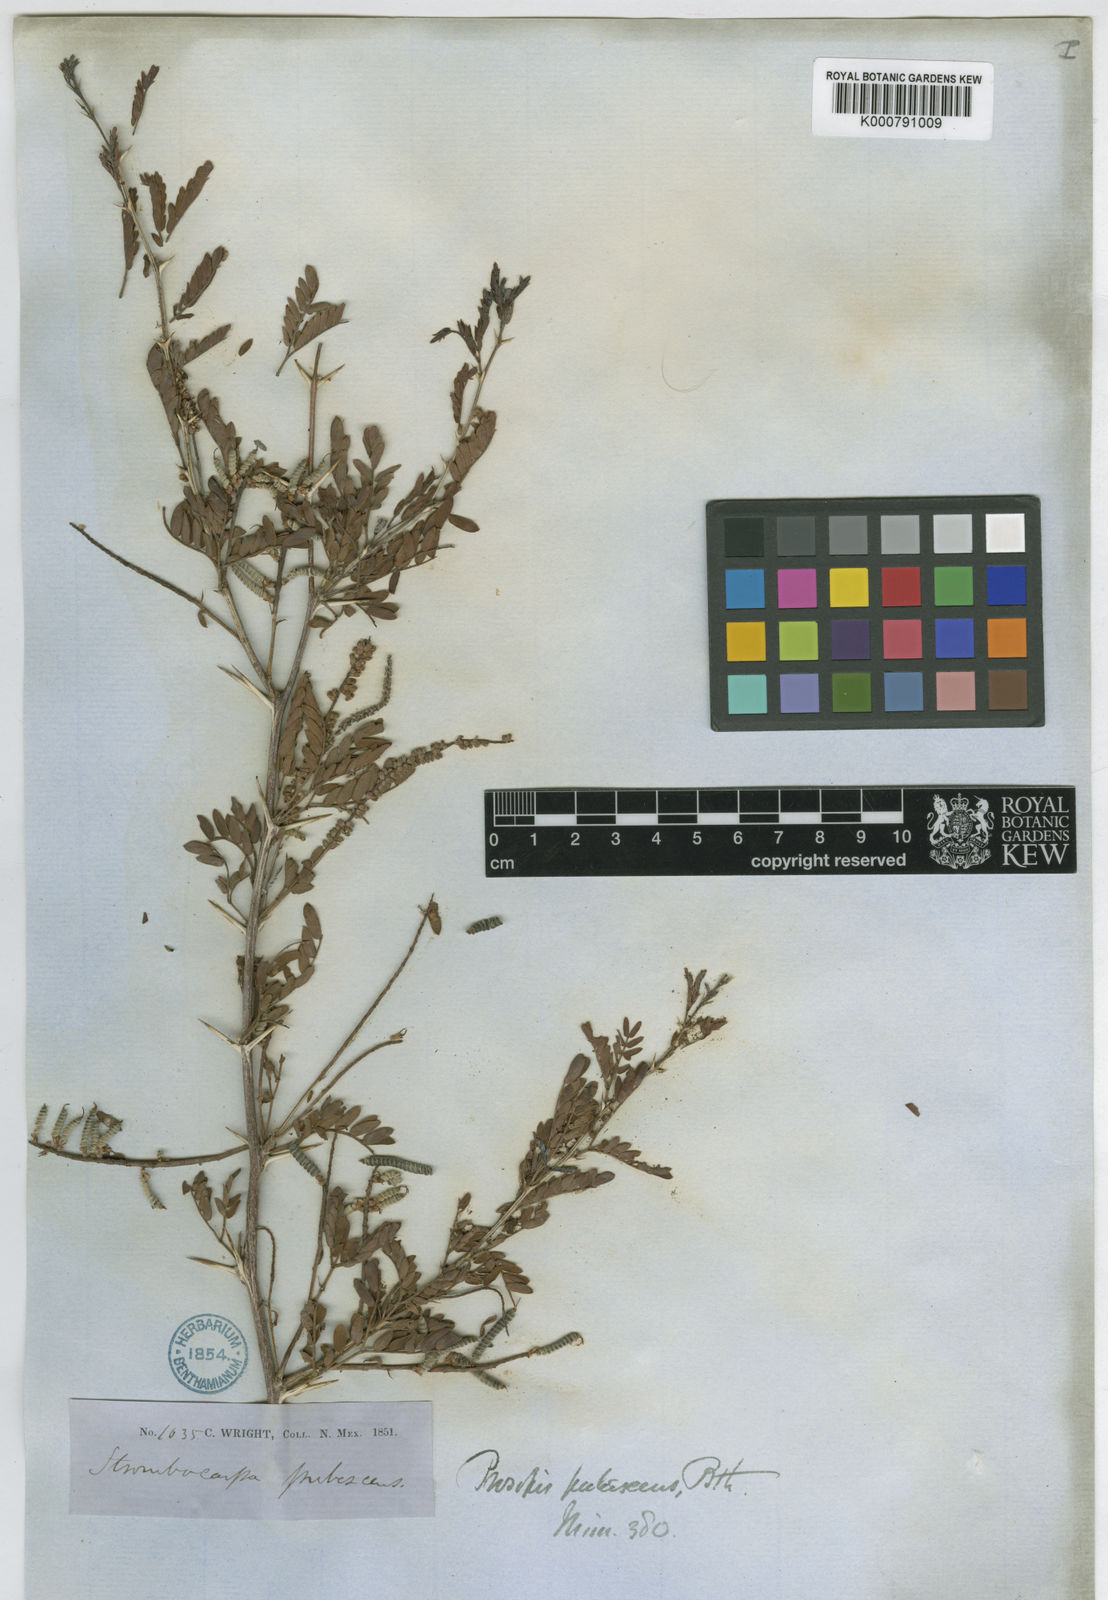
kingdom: Plantae
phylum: Tracheophyta
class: Magnoliopsida
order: Fabales
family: Fabaceae
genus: Prosopis
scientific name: Prosopis
